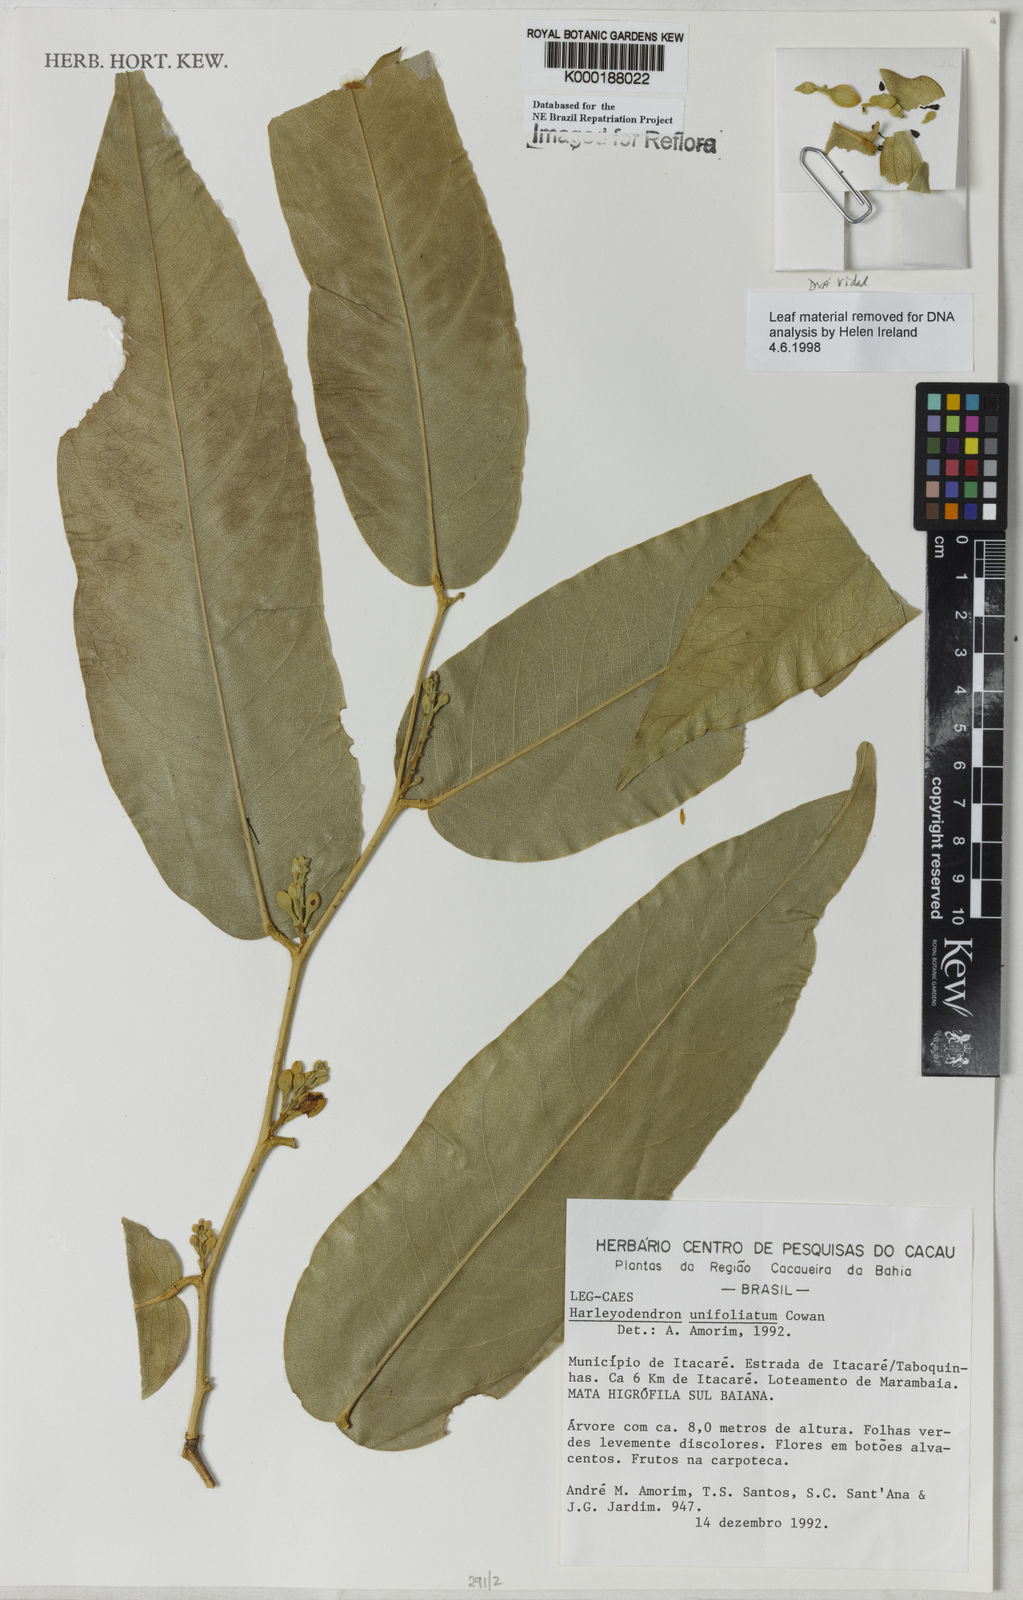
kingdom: Plantae
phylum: Tracheophyta
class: Magnoliopsida
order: Fabales
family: Fabaceae
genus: Harleyodendron
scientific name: Harleyodendron unifoliolatum
